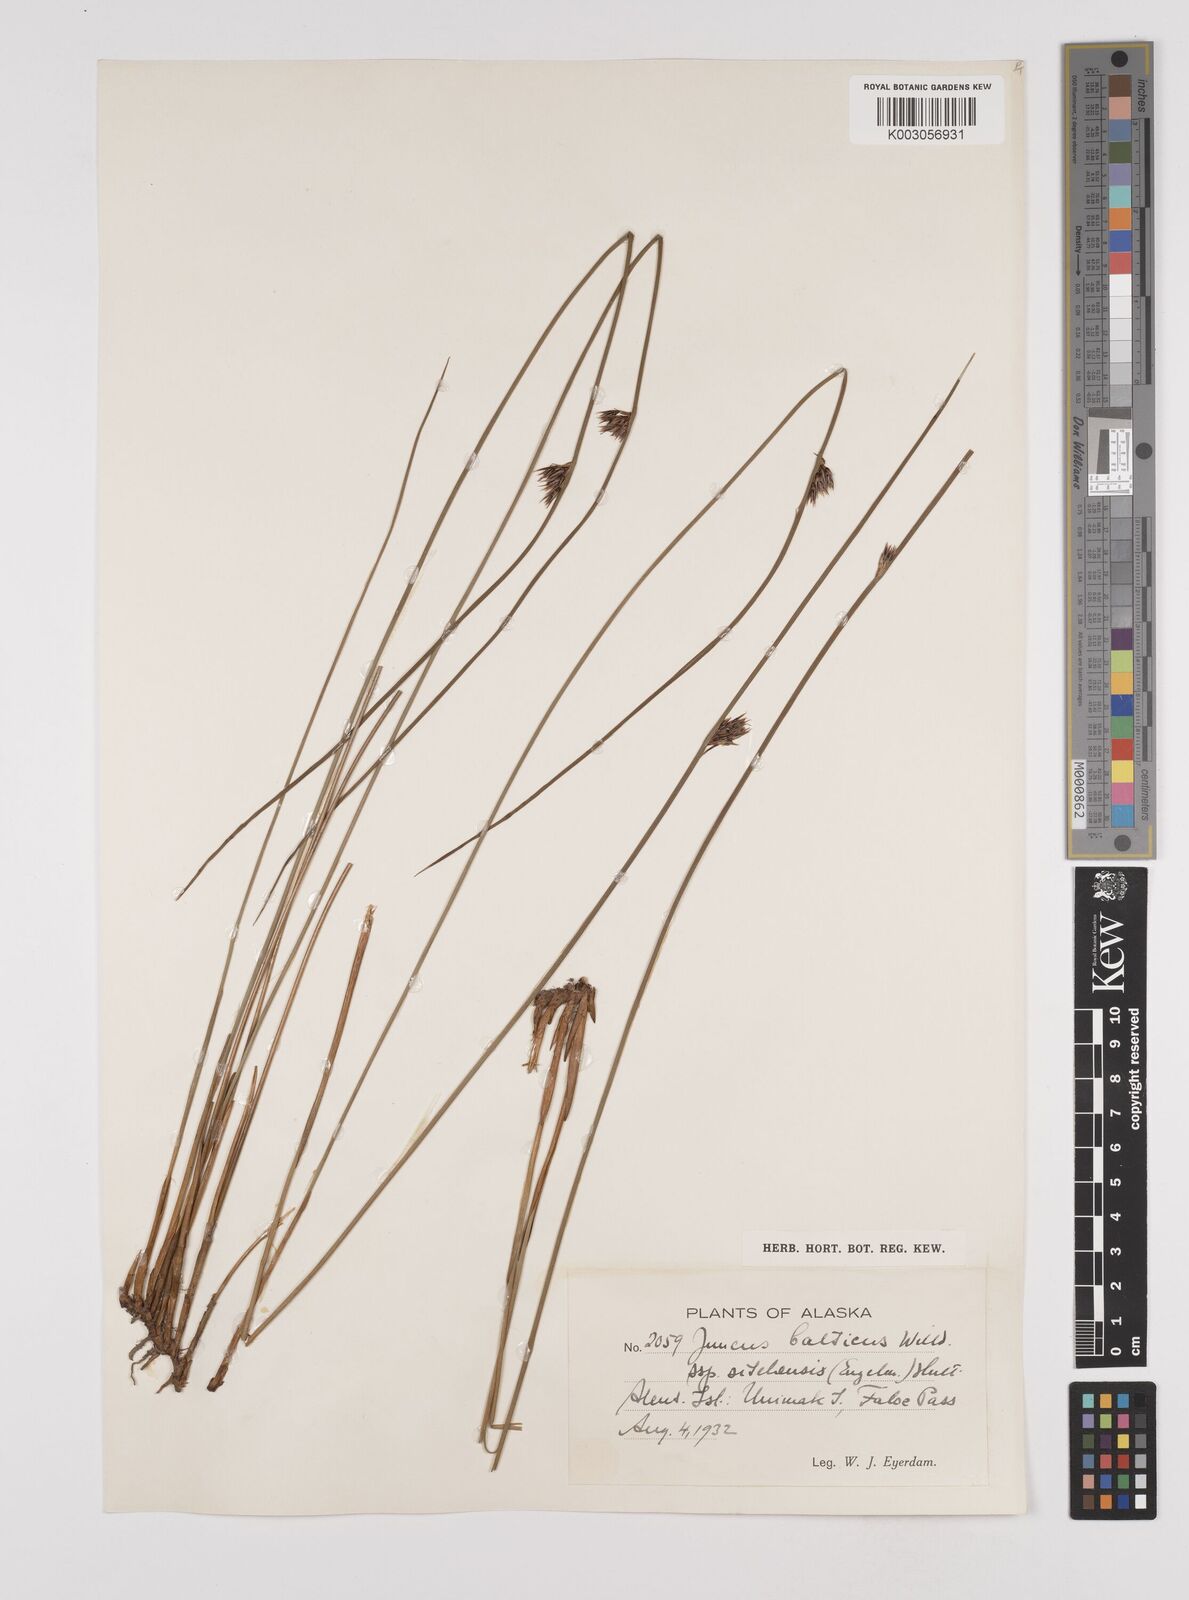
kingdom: Plantae
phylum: Tracheophyta
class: Liliopsida
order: Poales
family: Juncaceae
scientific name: Juncaceae
